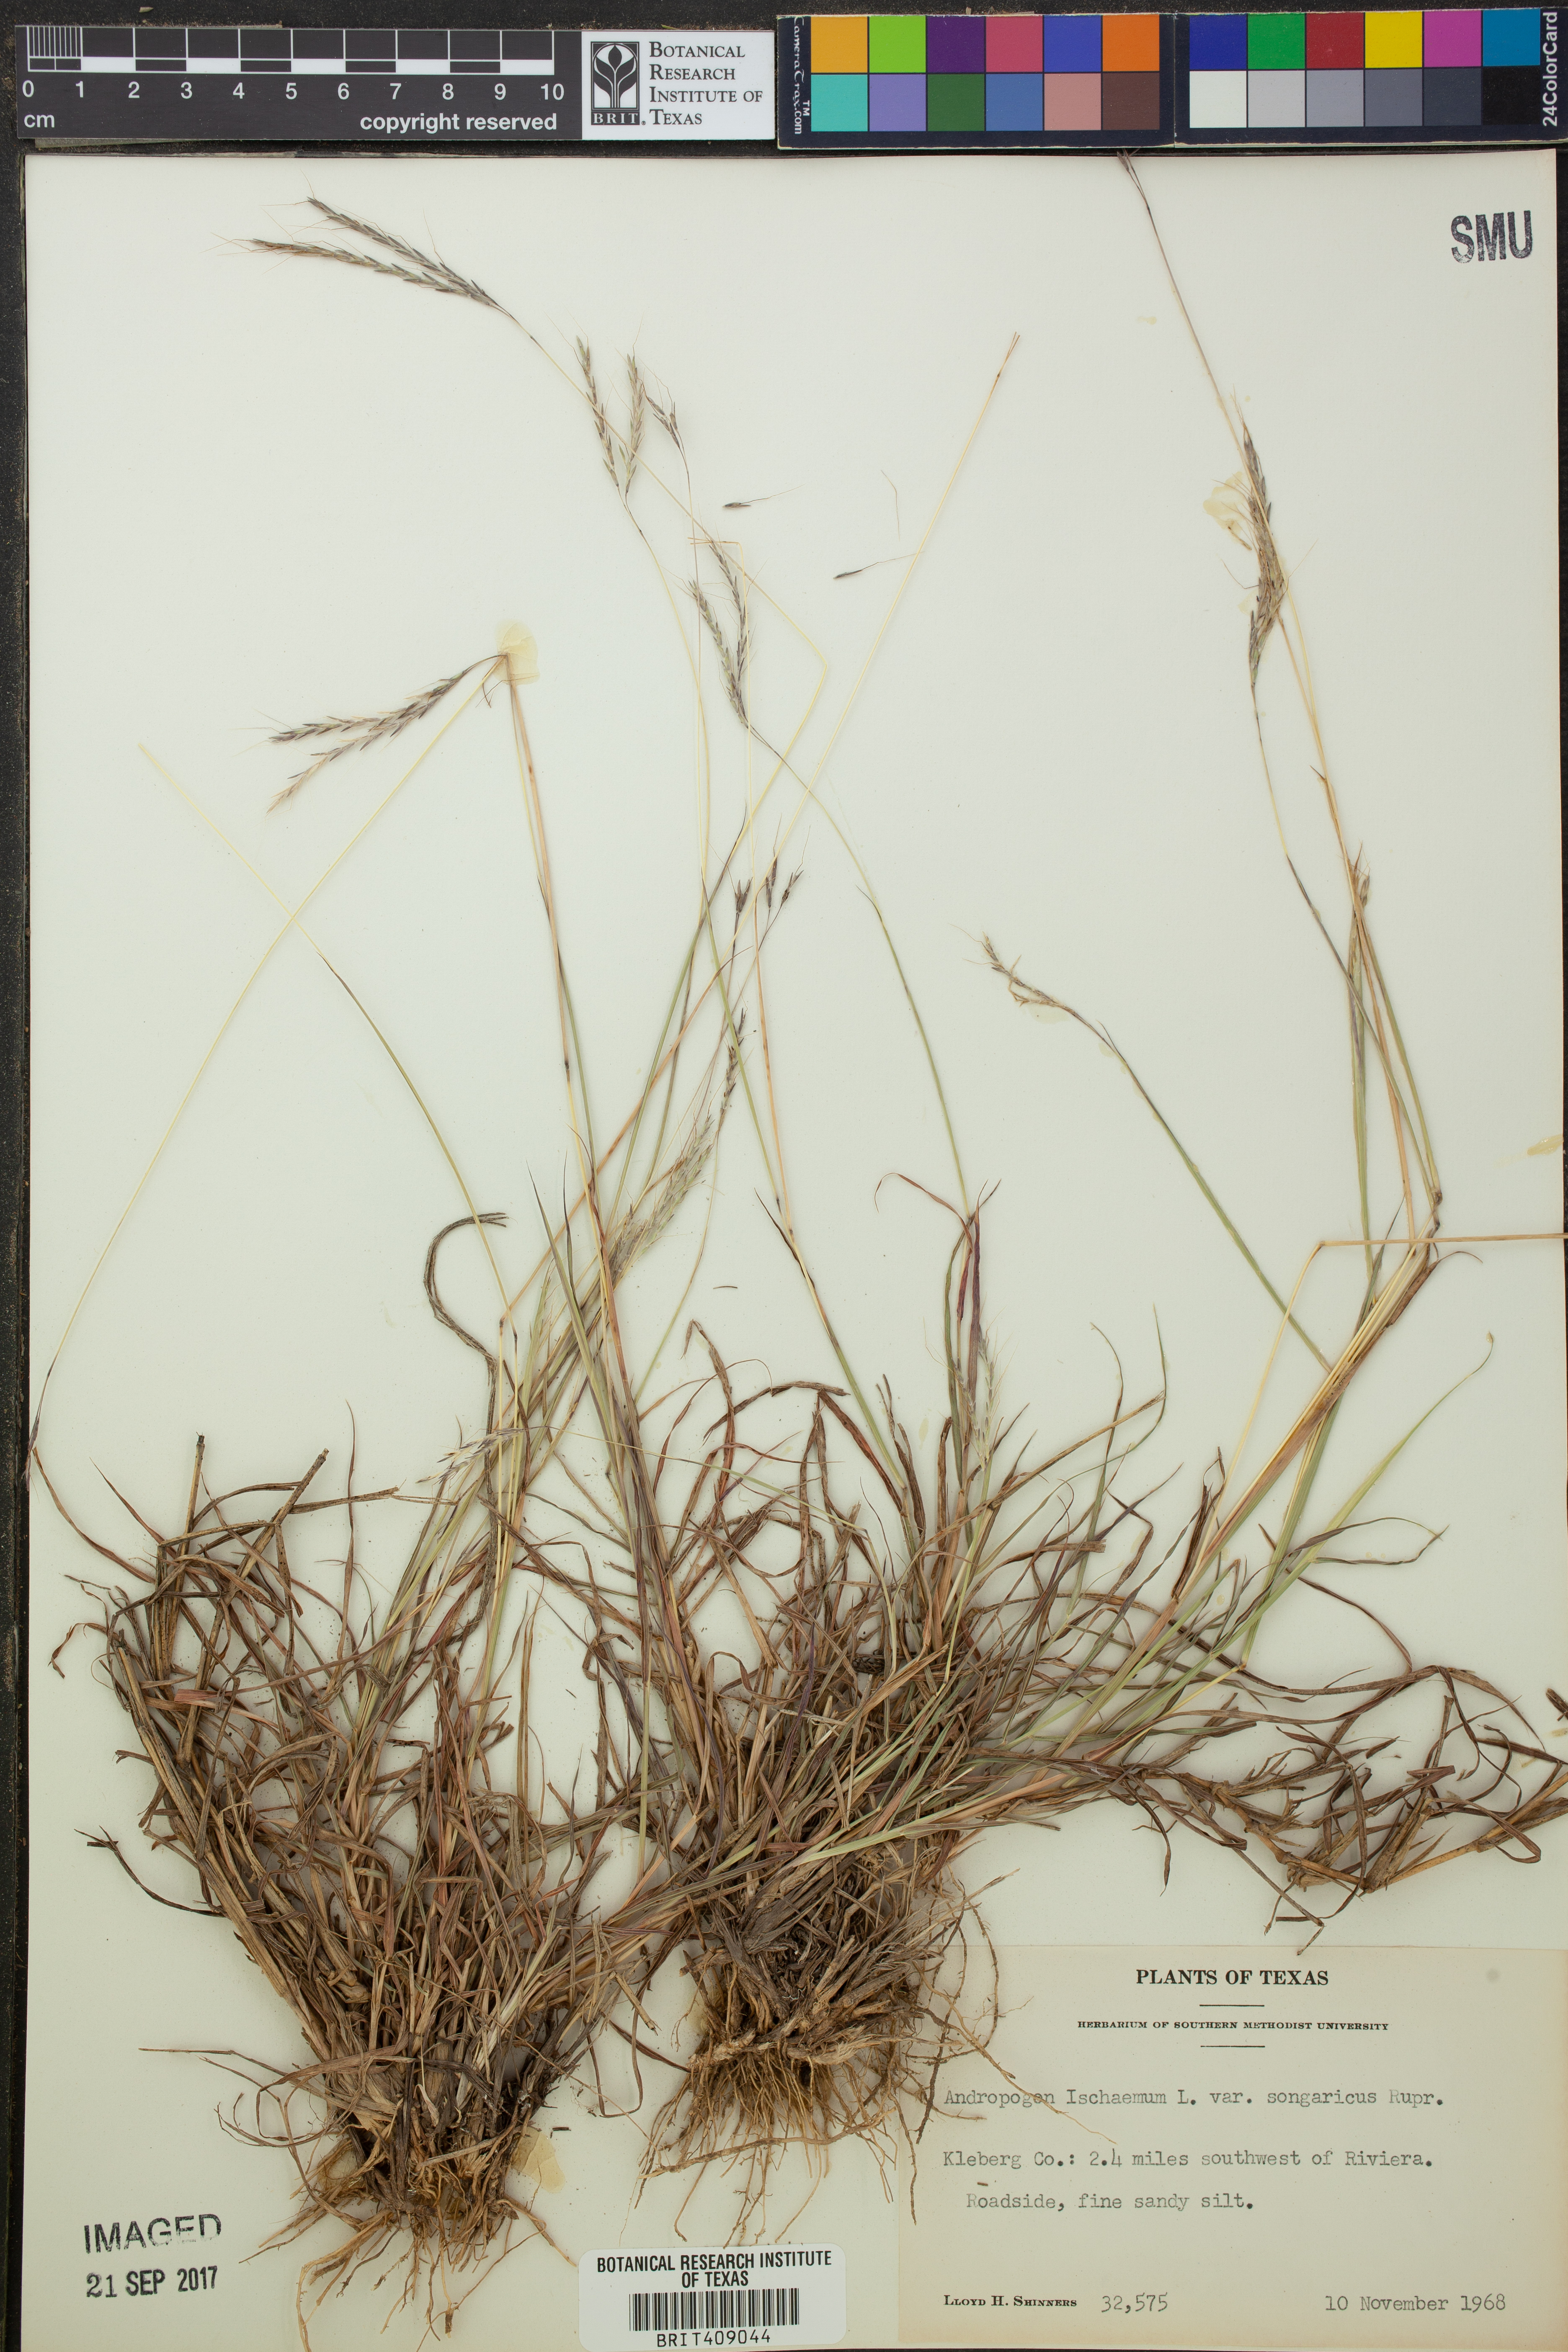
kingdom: Plantae
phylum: Tracheophyta
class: Liliopsida
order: Poales
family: Poaceae
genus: Bothriochloa
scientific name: Bothriochloa ischaemum
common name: Yellow bluestem
